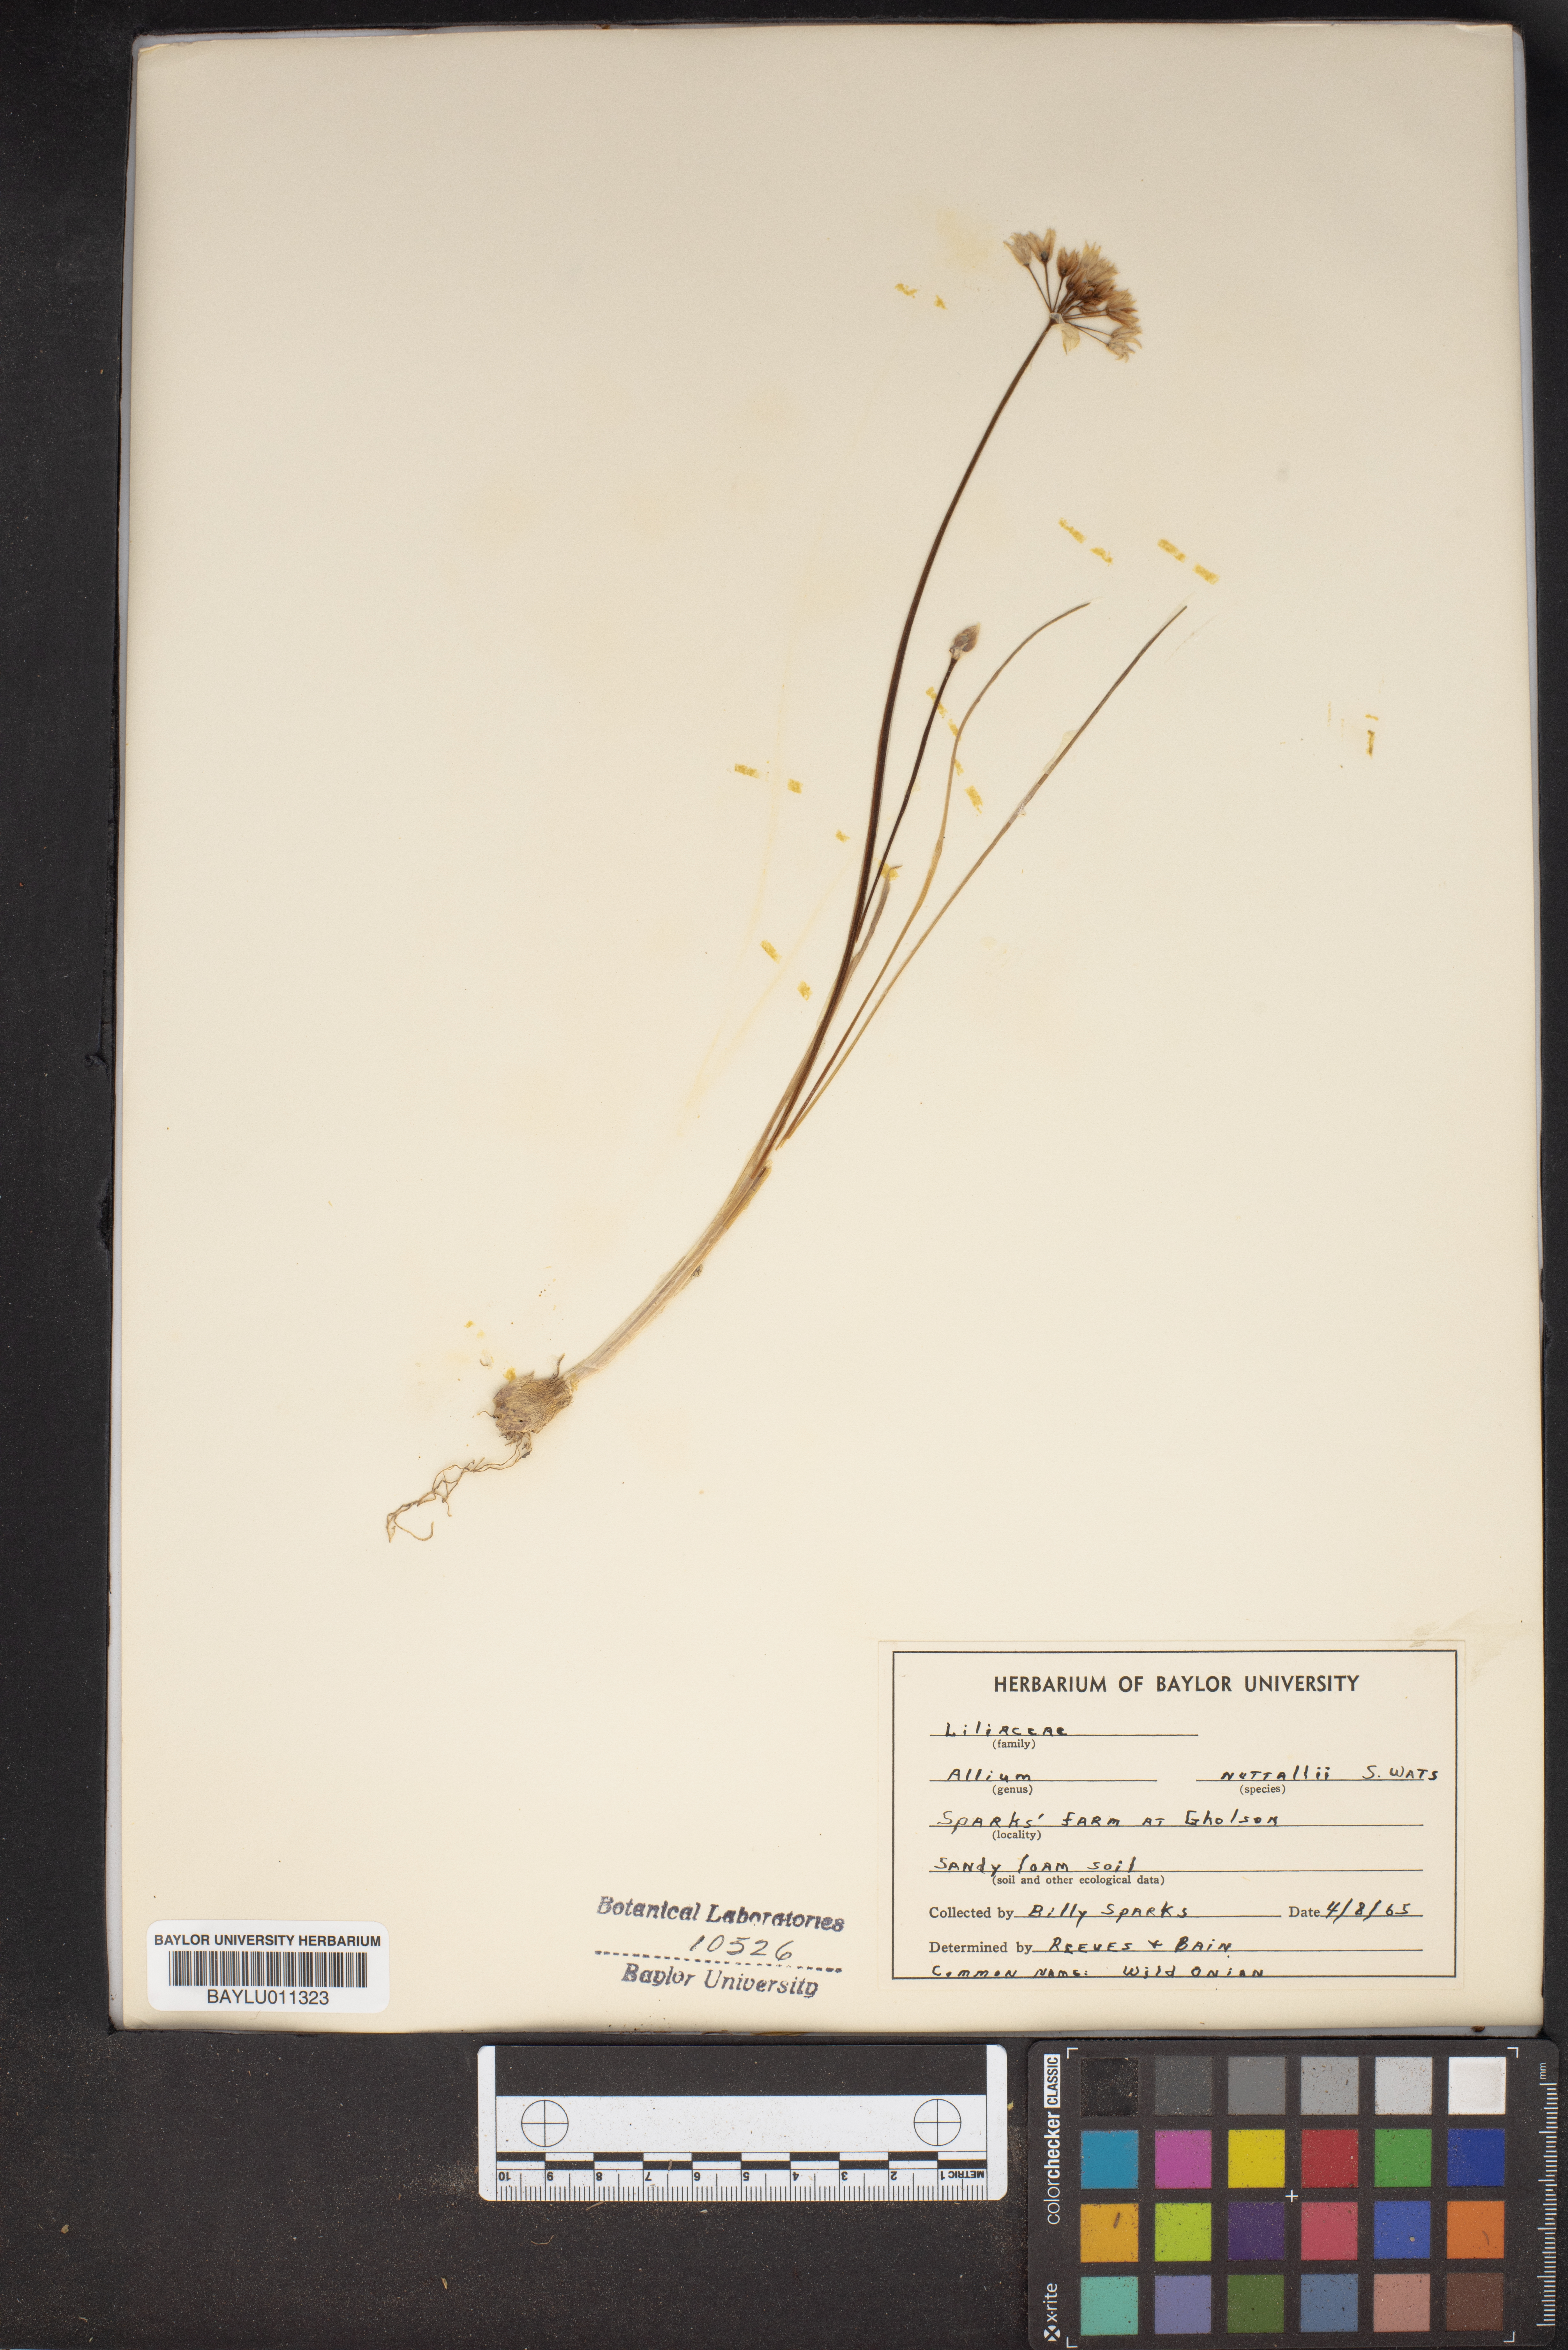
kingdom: Plantae
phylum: Tracheophyta
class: Liliopsida
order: Asparagales
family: Amaryllidaceae
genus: Allium
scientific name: Allium drummondii
